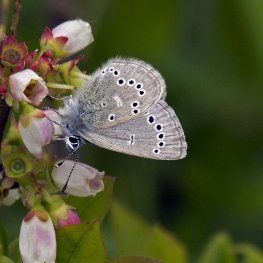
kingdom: Animalia
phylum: Arthropoda
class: Insecta
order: Lepidoptera
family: Lycaenidae
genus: Glaucopsyche
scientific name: Glaucopsyche lygdamus
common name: Silvery Blue
